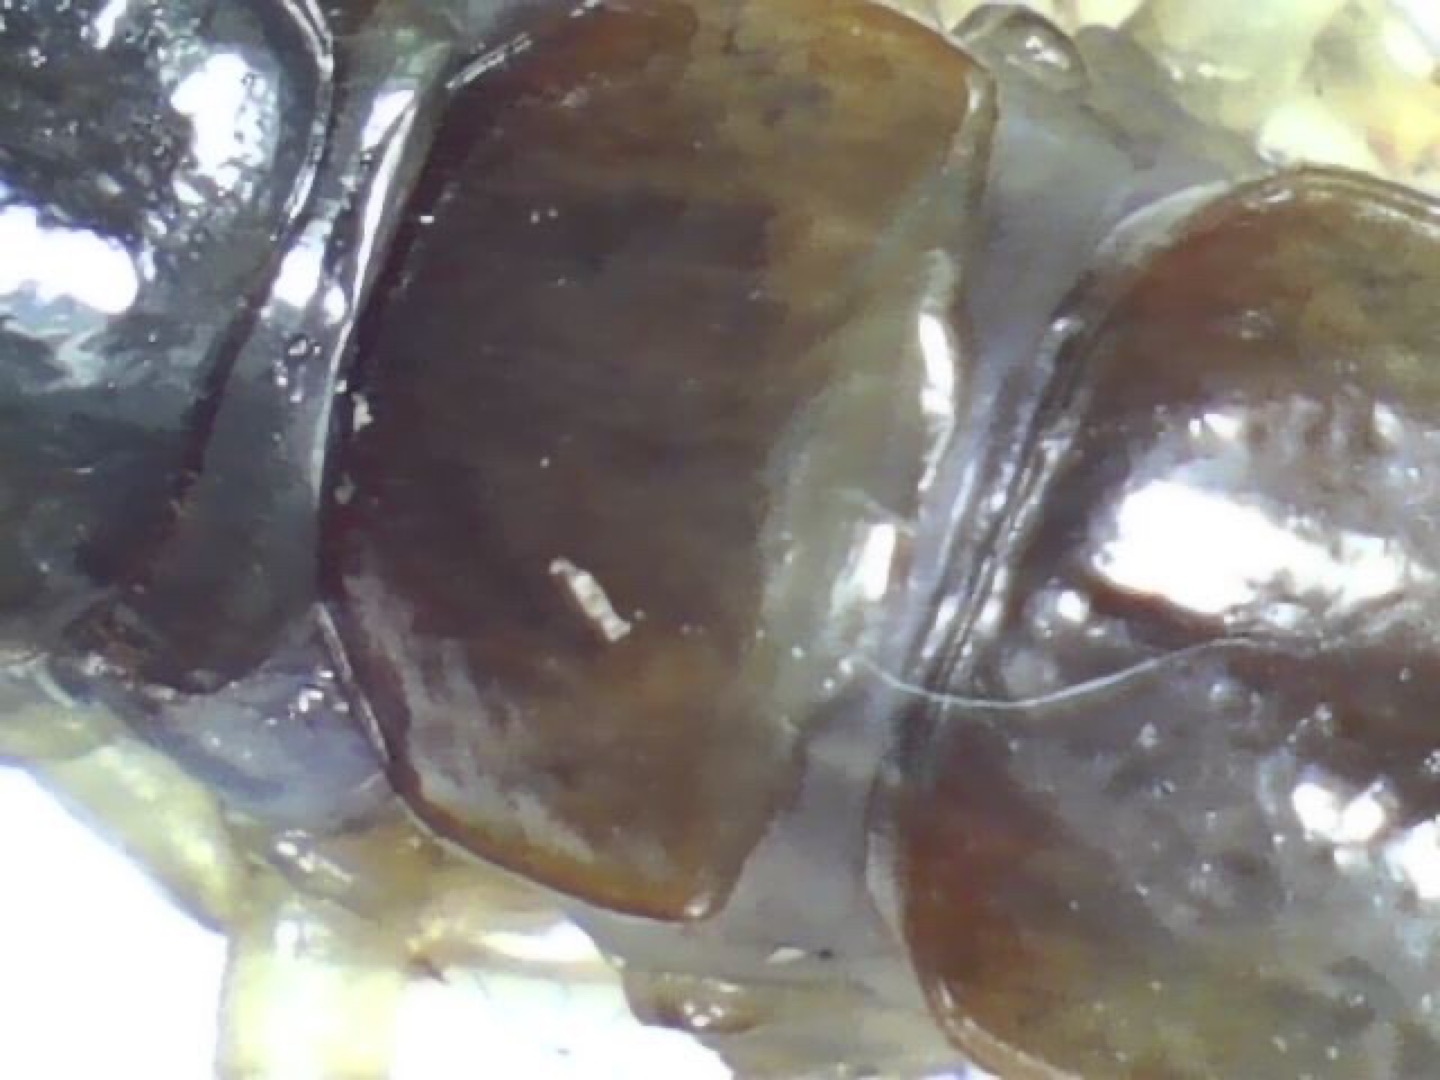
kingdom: Animalia
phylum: Arthropoda
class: Chilopoda
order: Lithobiomorpha
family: Lithobiidae
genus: Lithobius
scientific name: Lithobius forficatus
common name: Stenskolopender
